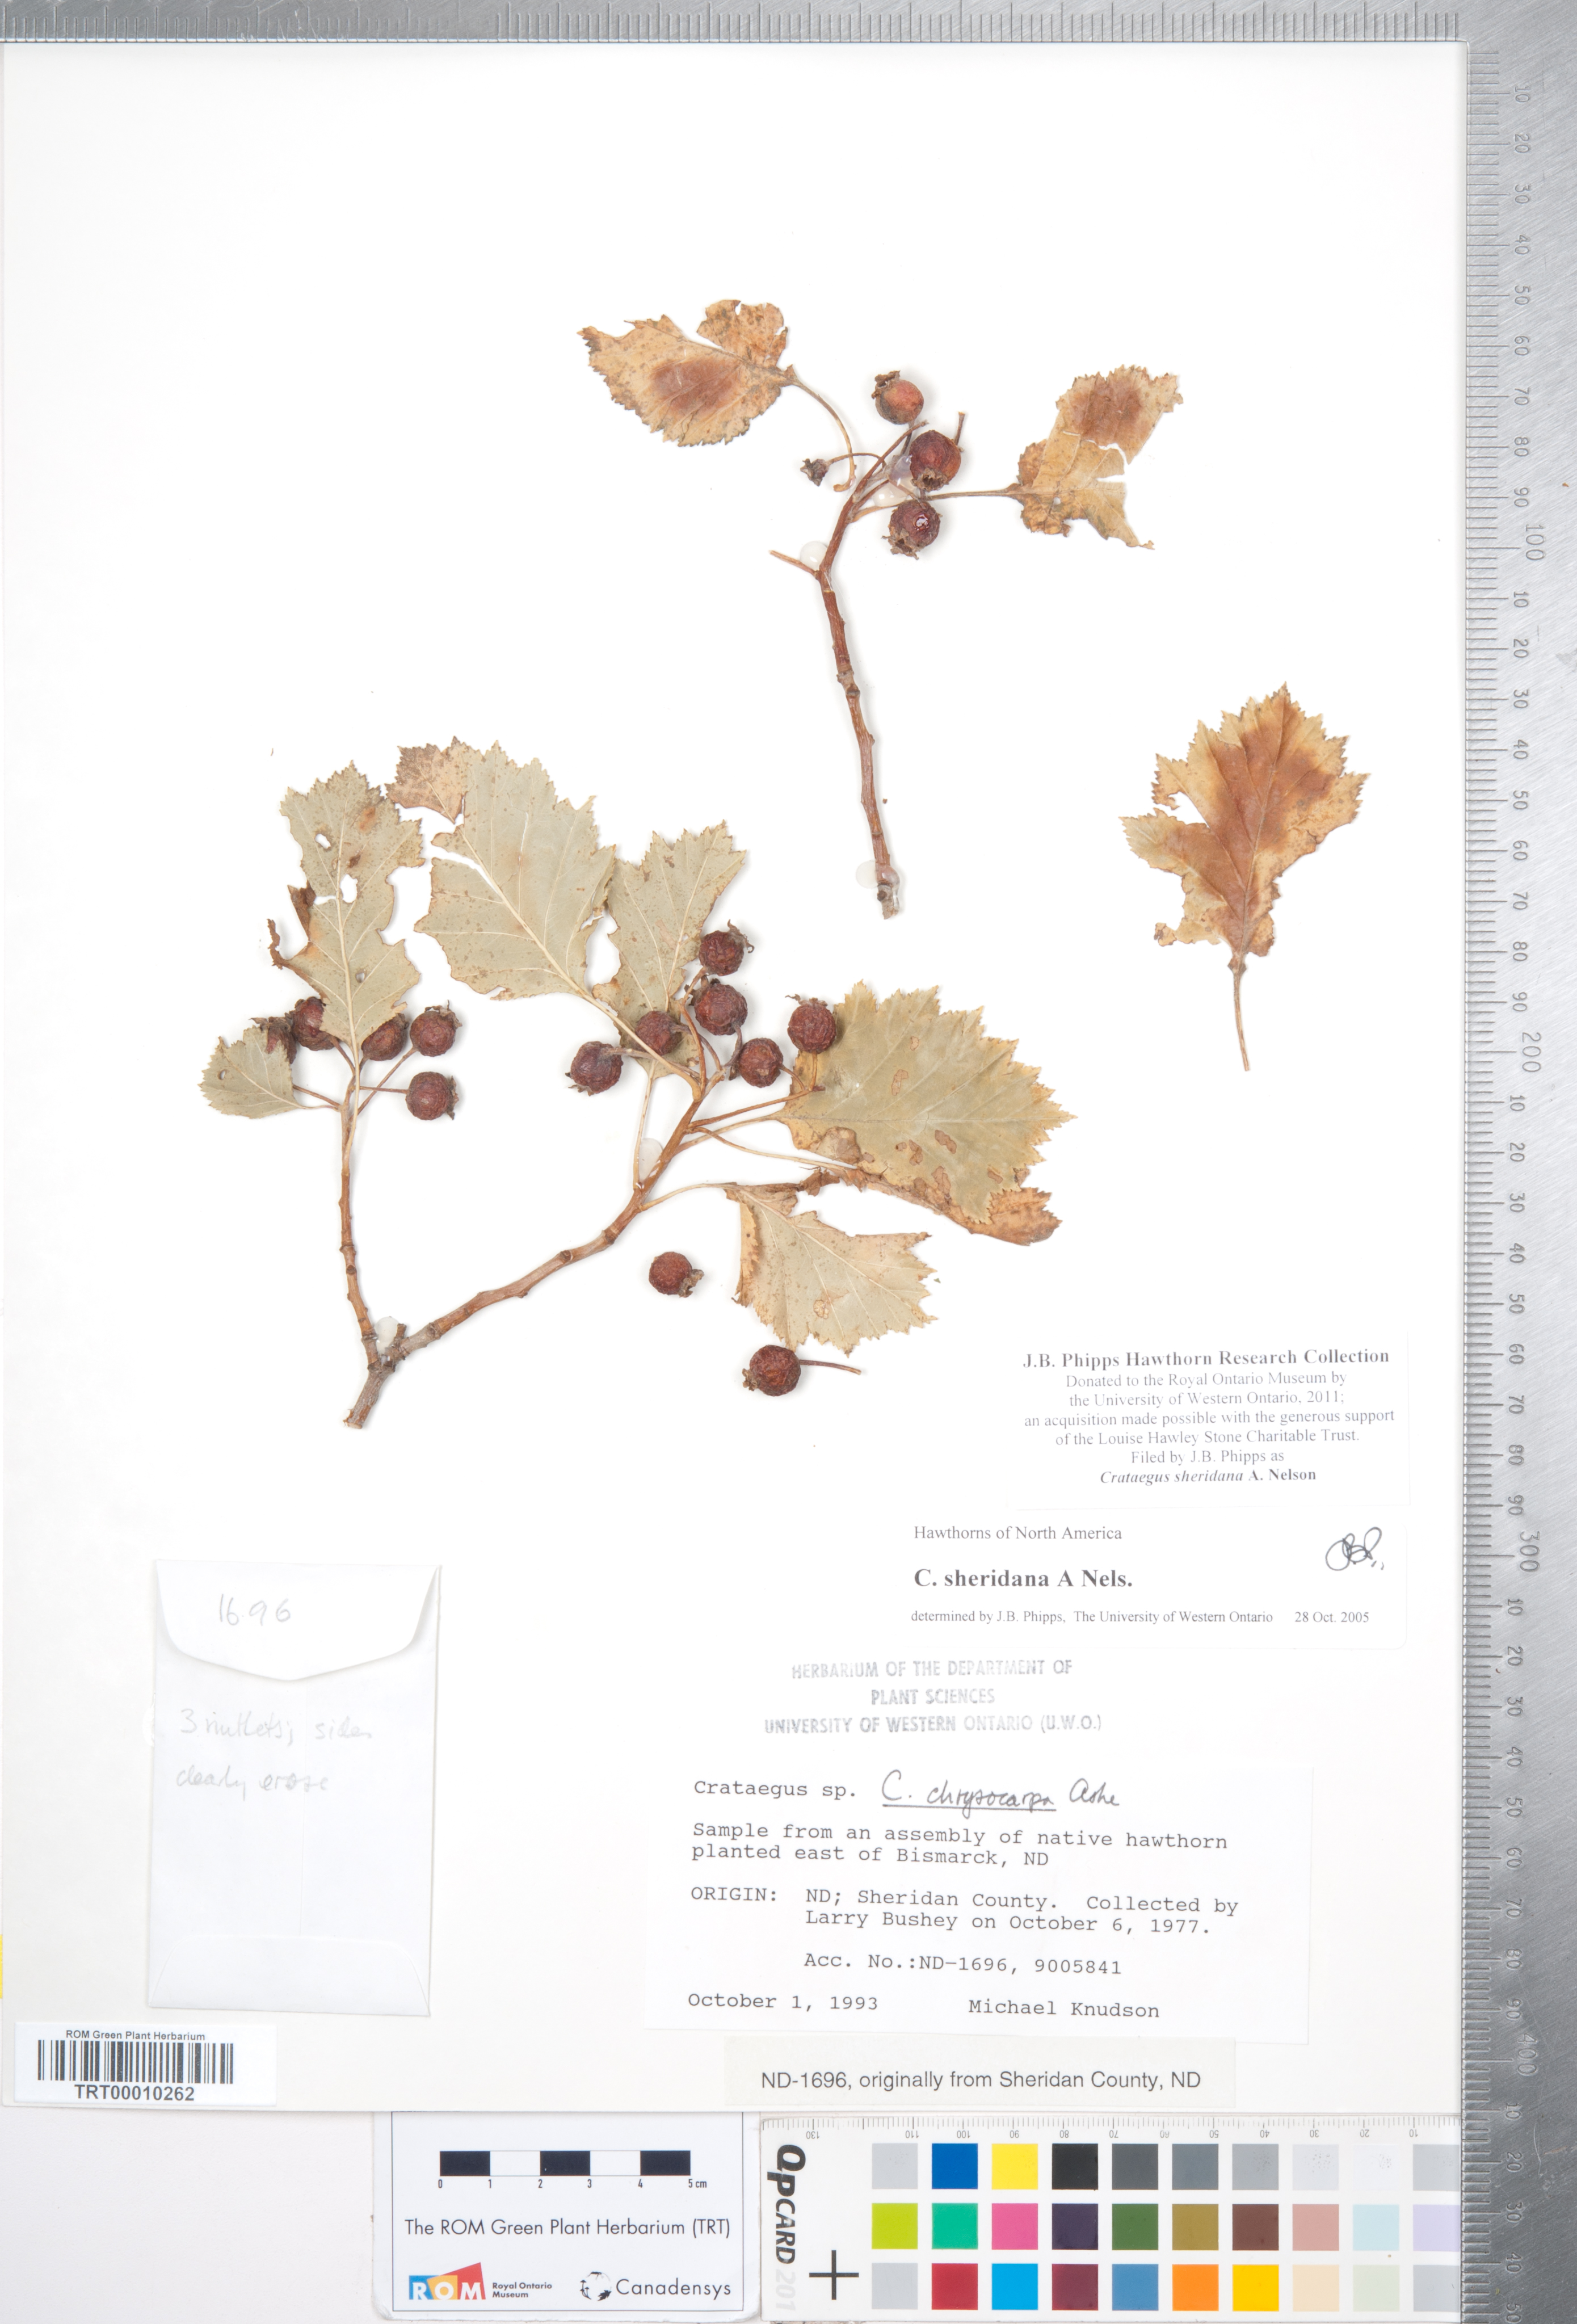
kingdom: Plantae
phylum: Tracheophyta
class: Magnoliopsida
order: Rosales
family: Rosaceae
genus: Crataegus
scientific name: Crataegus chrysocarpa
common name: Fire-berry hawthorn
